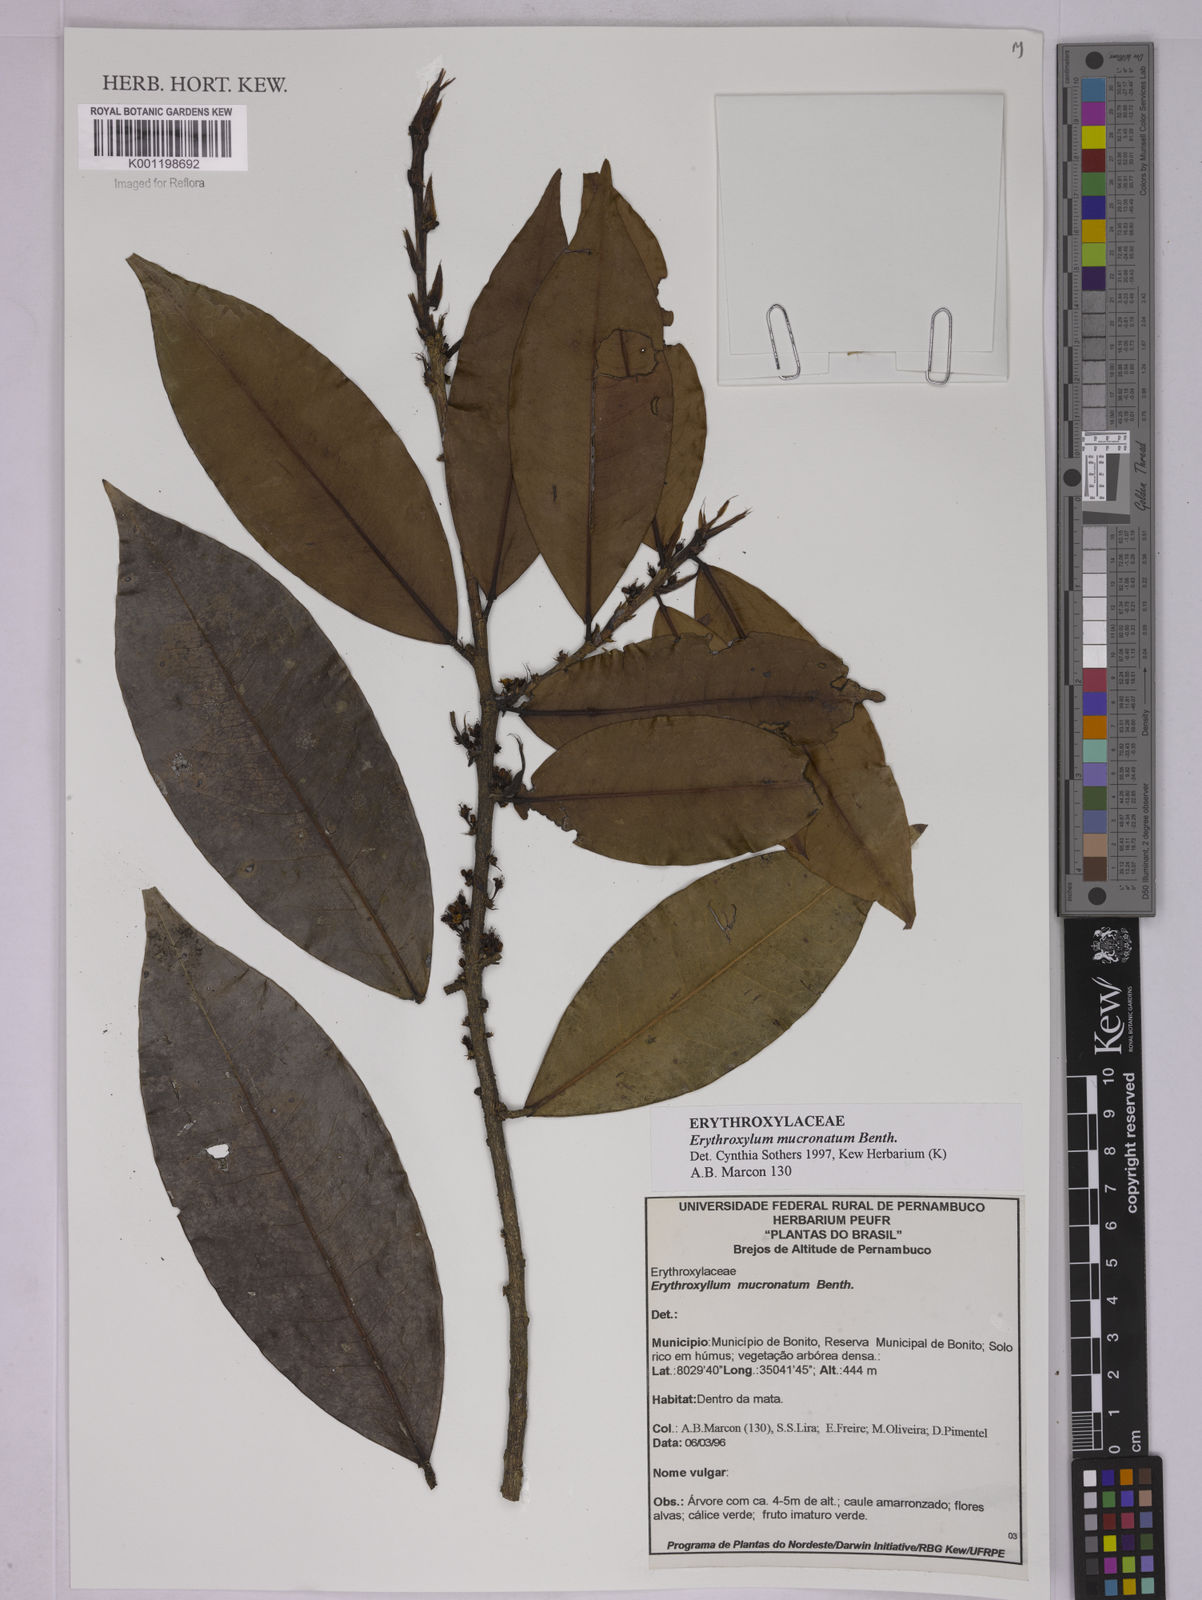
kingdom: Plantae
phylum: Tracheophyta
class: Magnoliopsida
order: Malpighiales
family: Erythroxylaceae
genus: Erythroxylum
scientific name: Erythroxylum mucronatum
